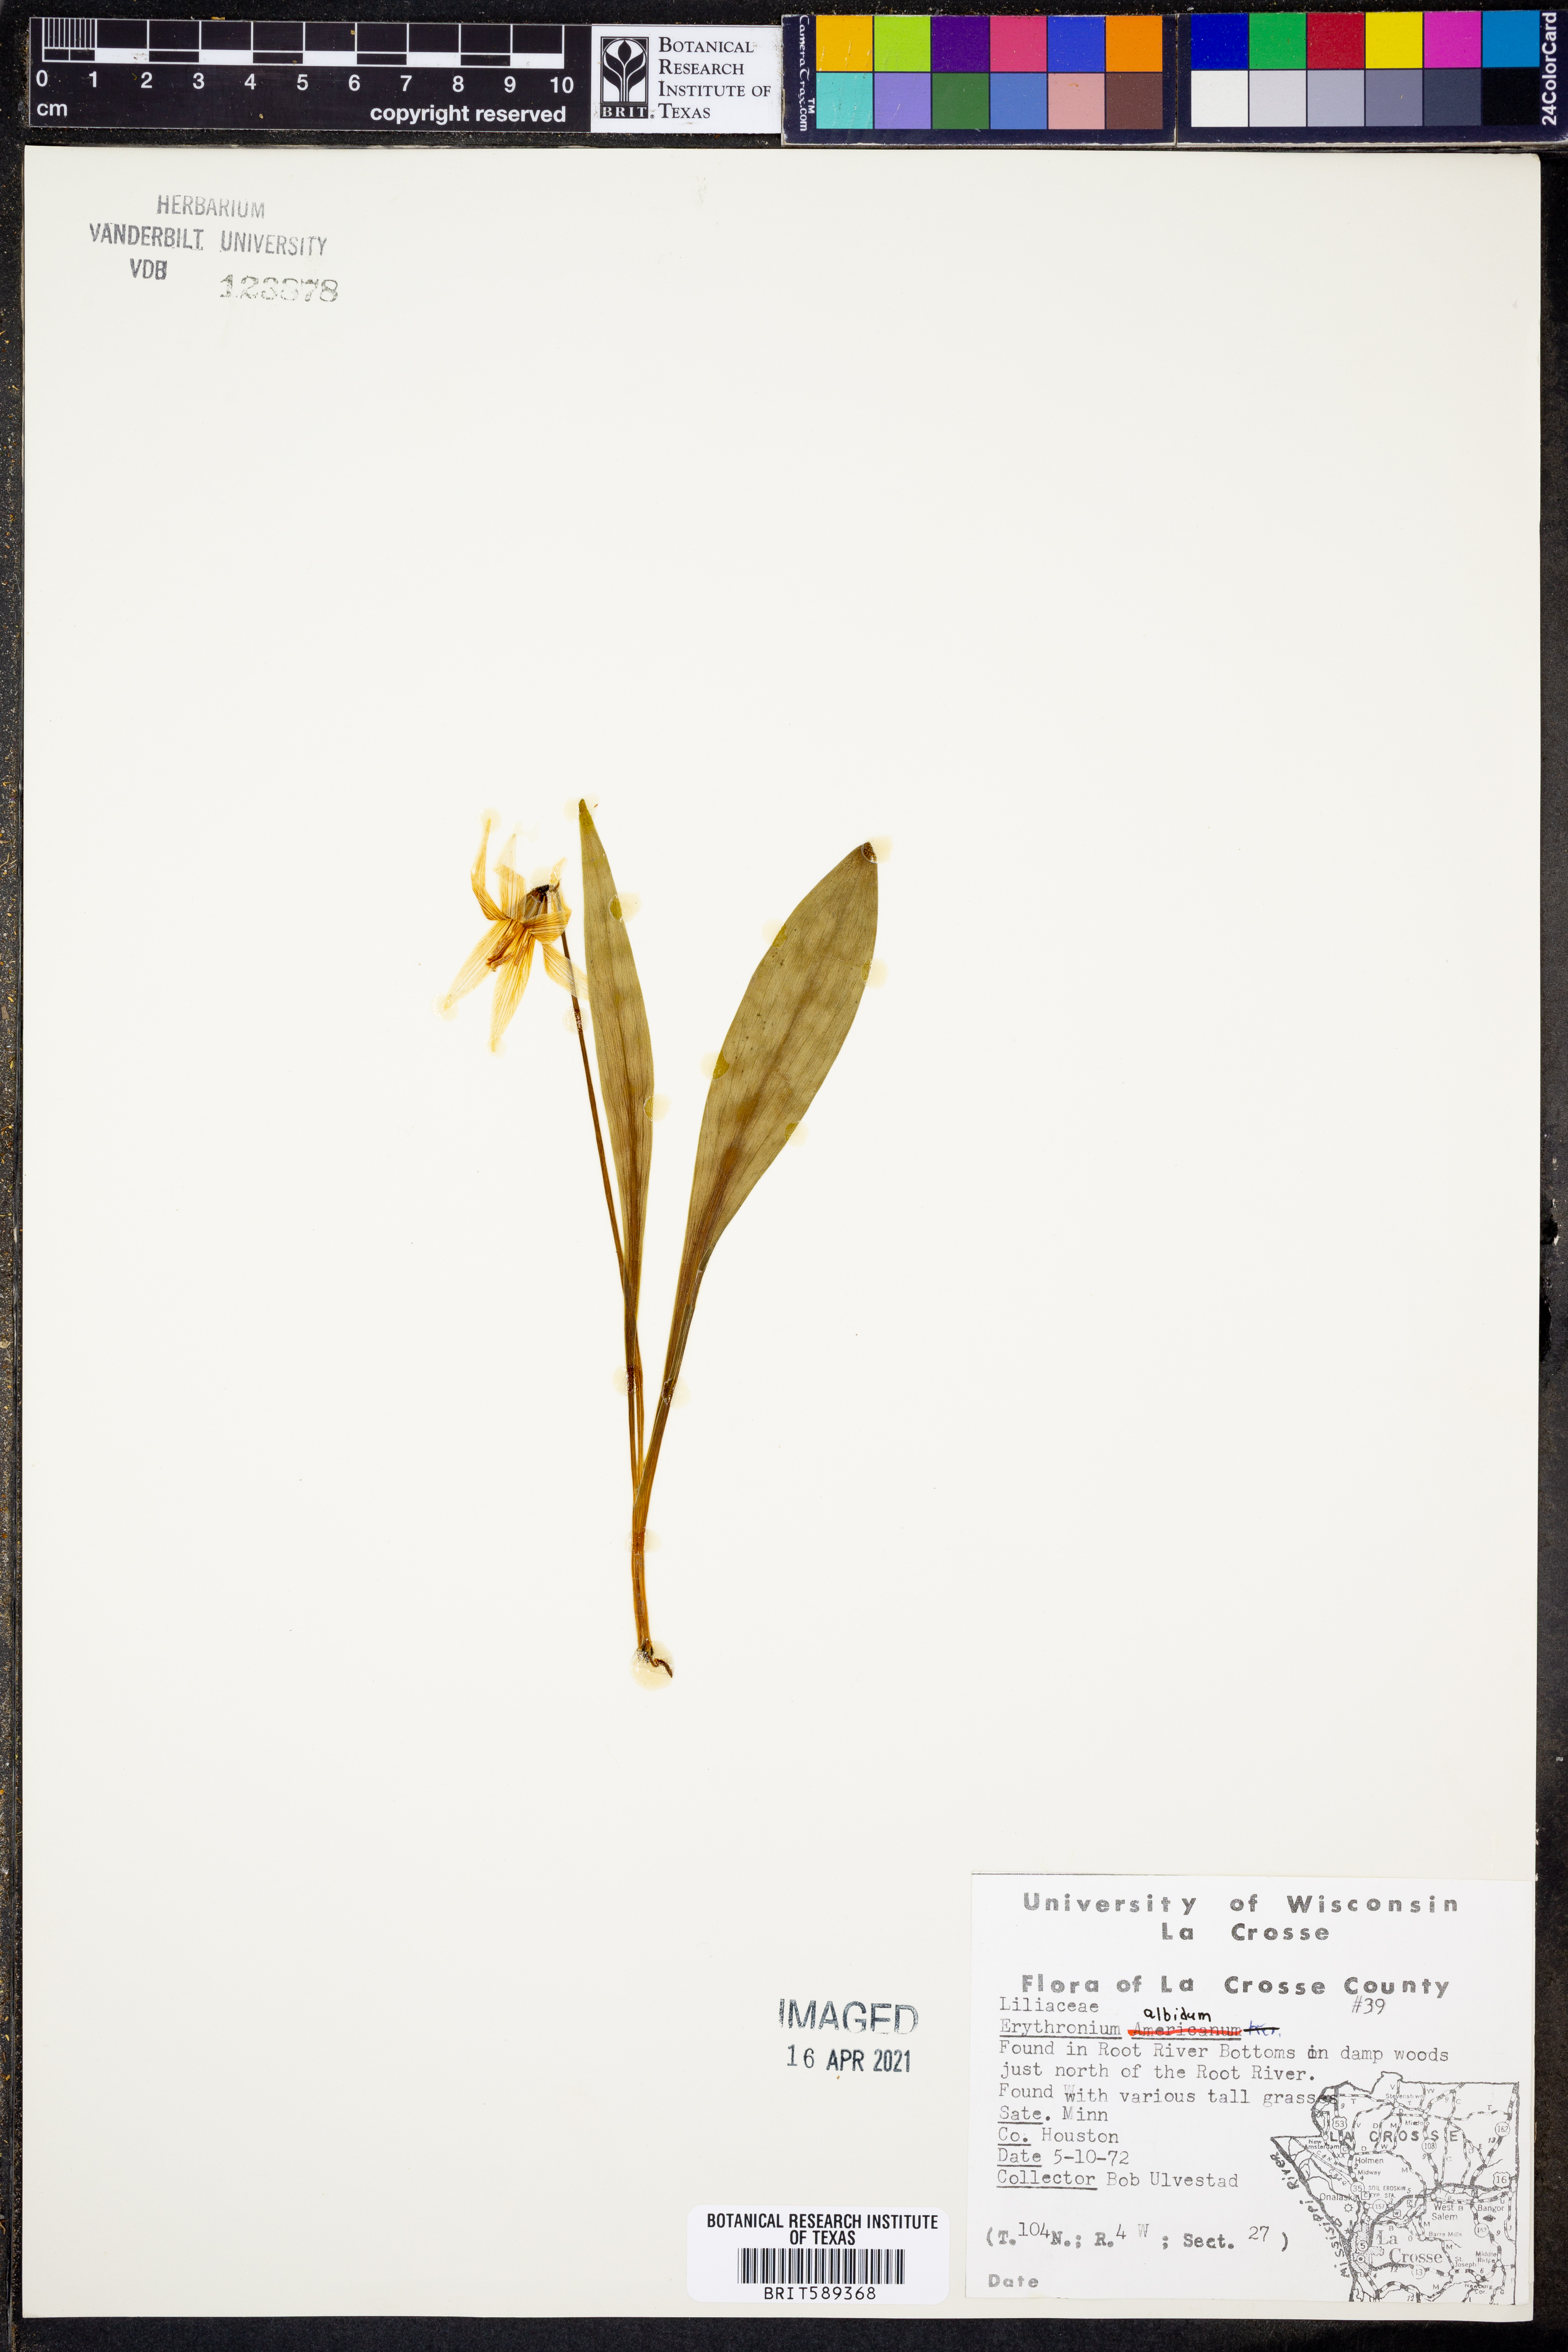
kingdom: Plantae
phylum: Tracheophyta
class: Liliopsida
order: Liliales
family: Liliaceae
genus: Erythronium
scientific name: Erythronium albidum
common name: White trout-lily
